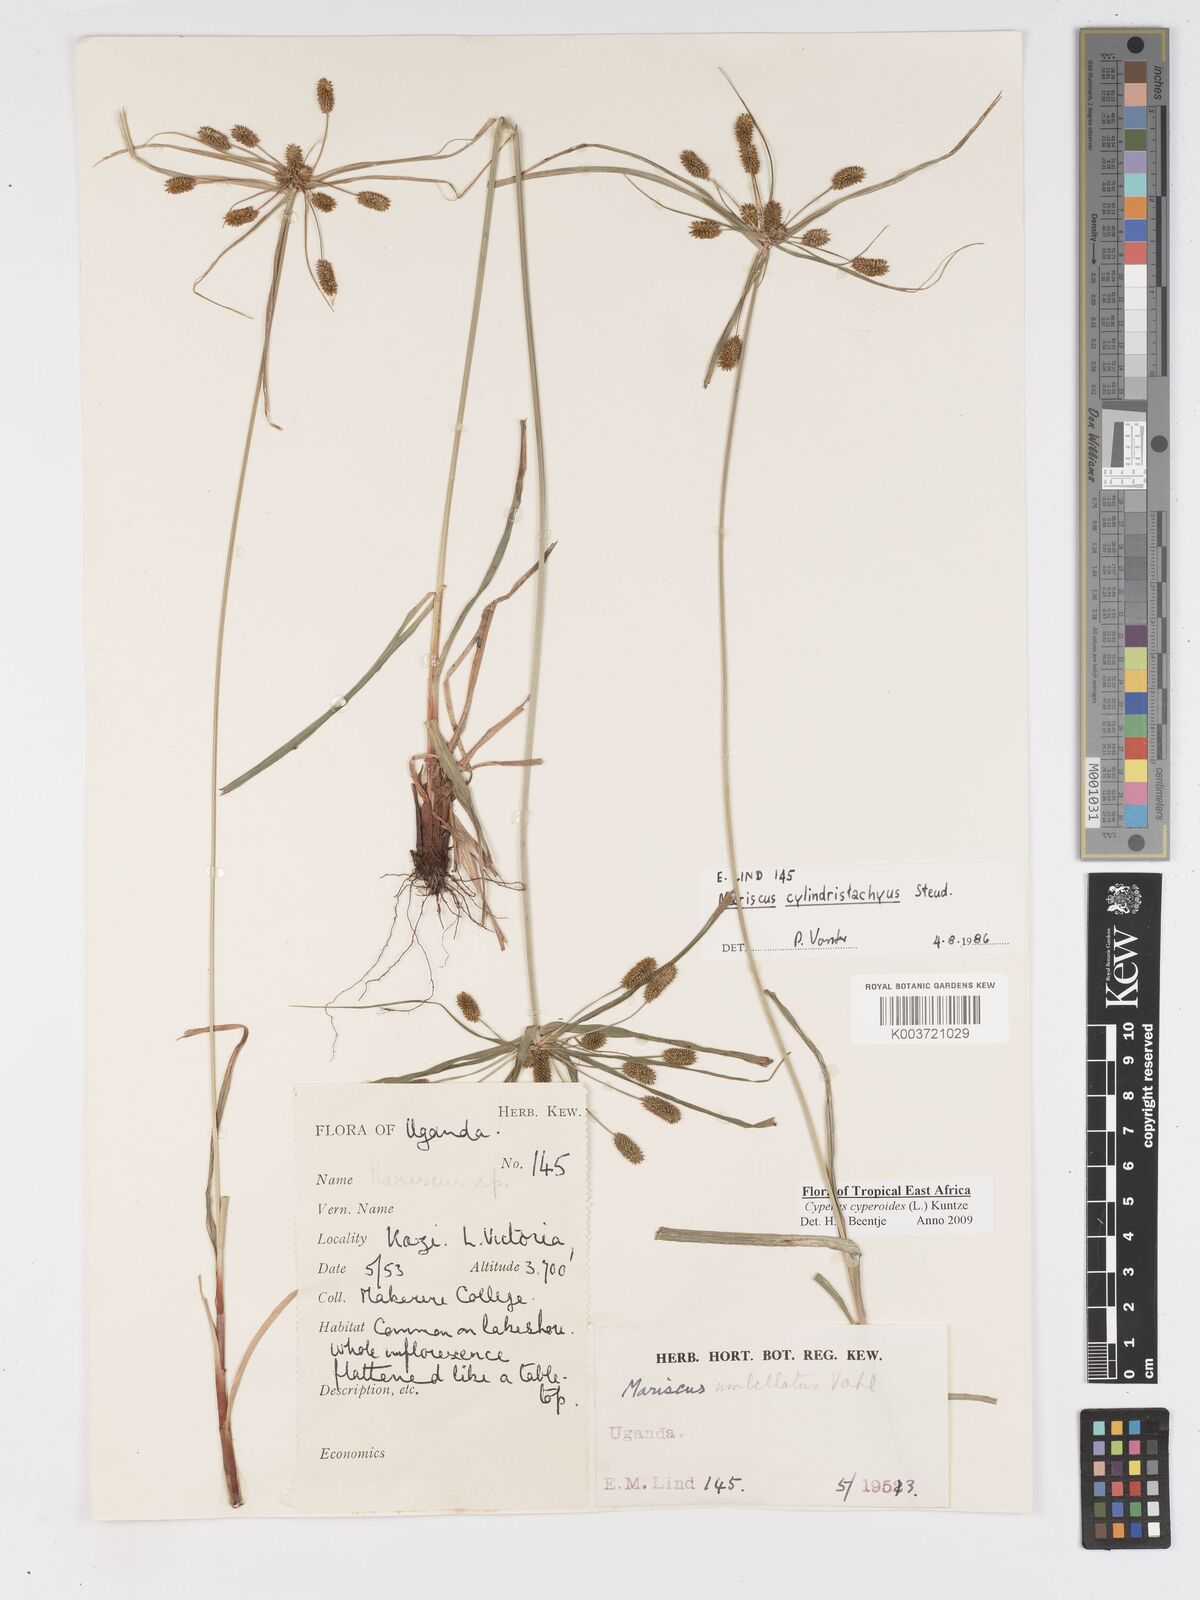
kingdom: Plantae
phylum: Tracheophyta
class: Liliopsida
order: Poales
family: Cyperaceae
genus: Cyperus
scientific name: Cyperus cyperoides
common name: Pacific island flat sedge
